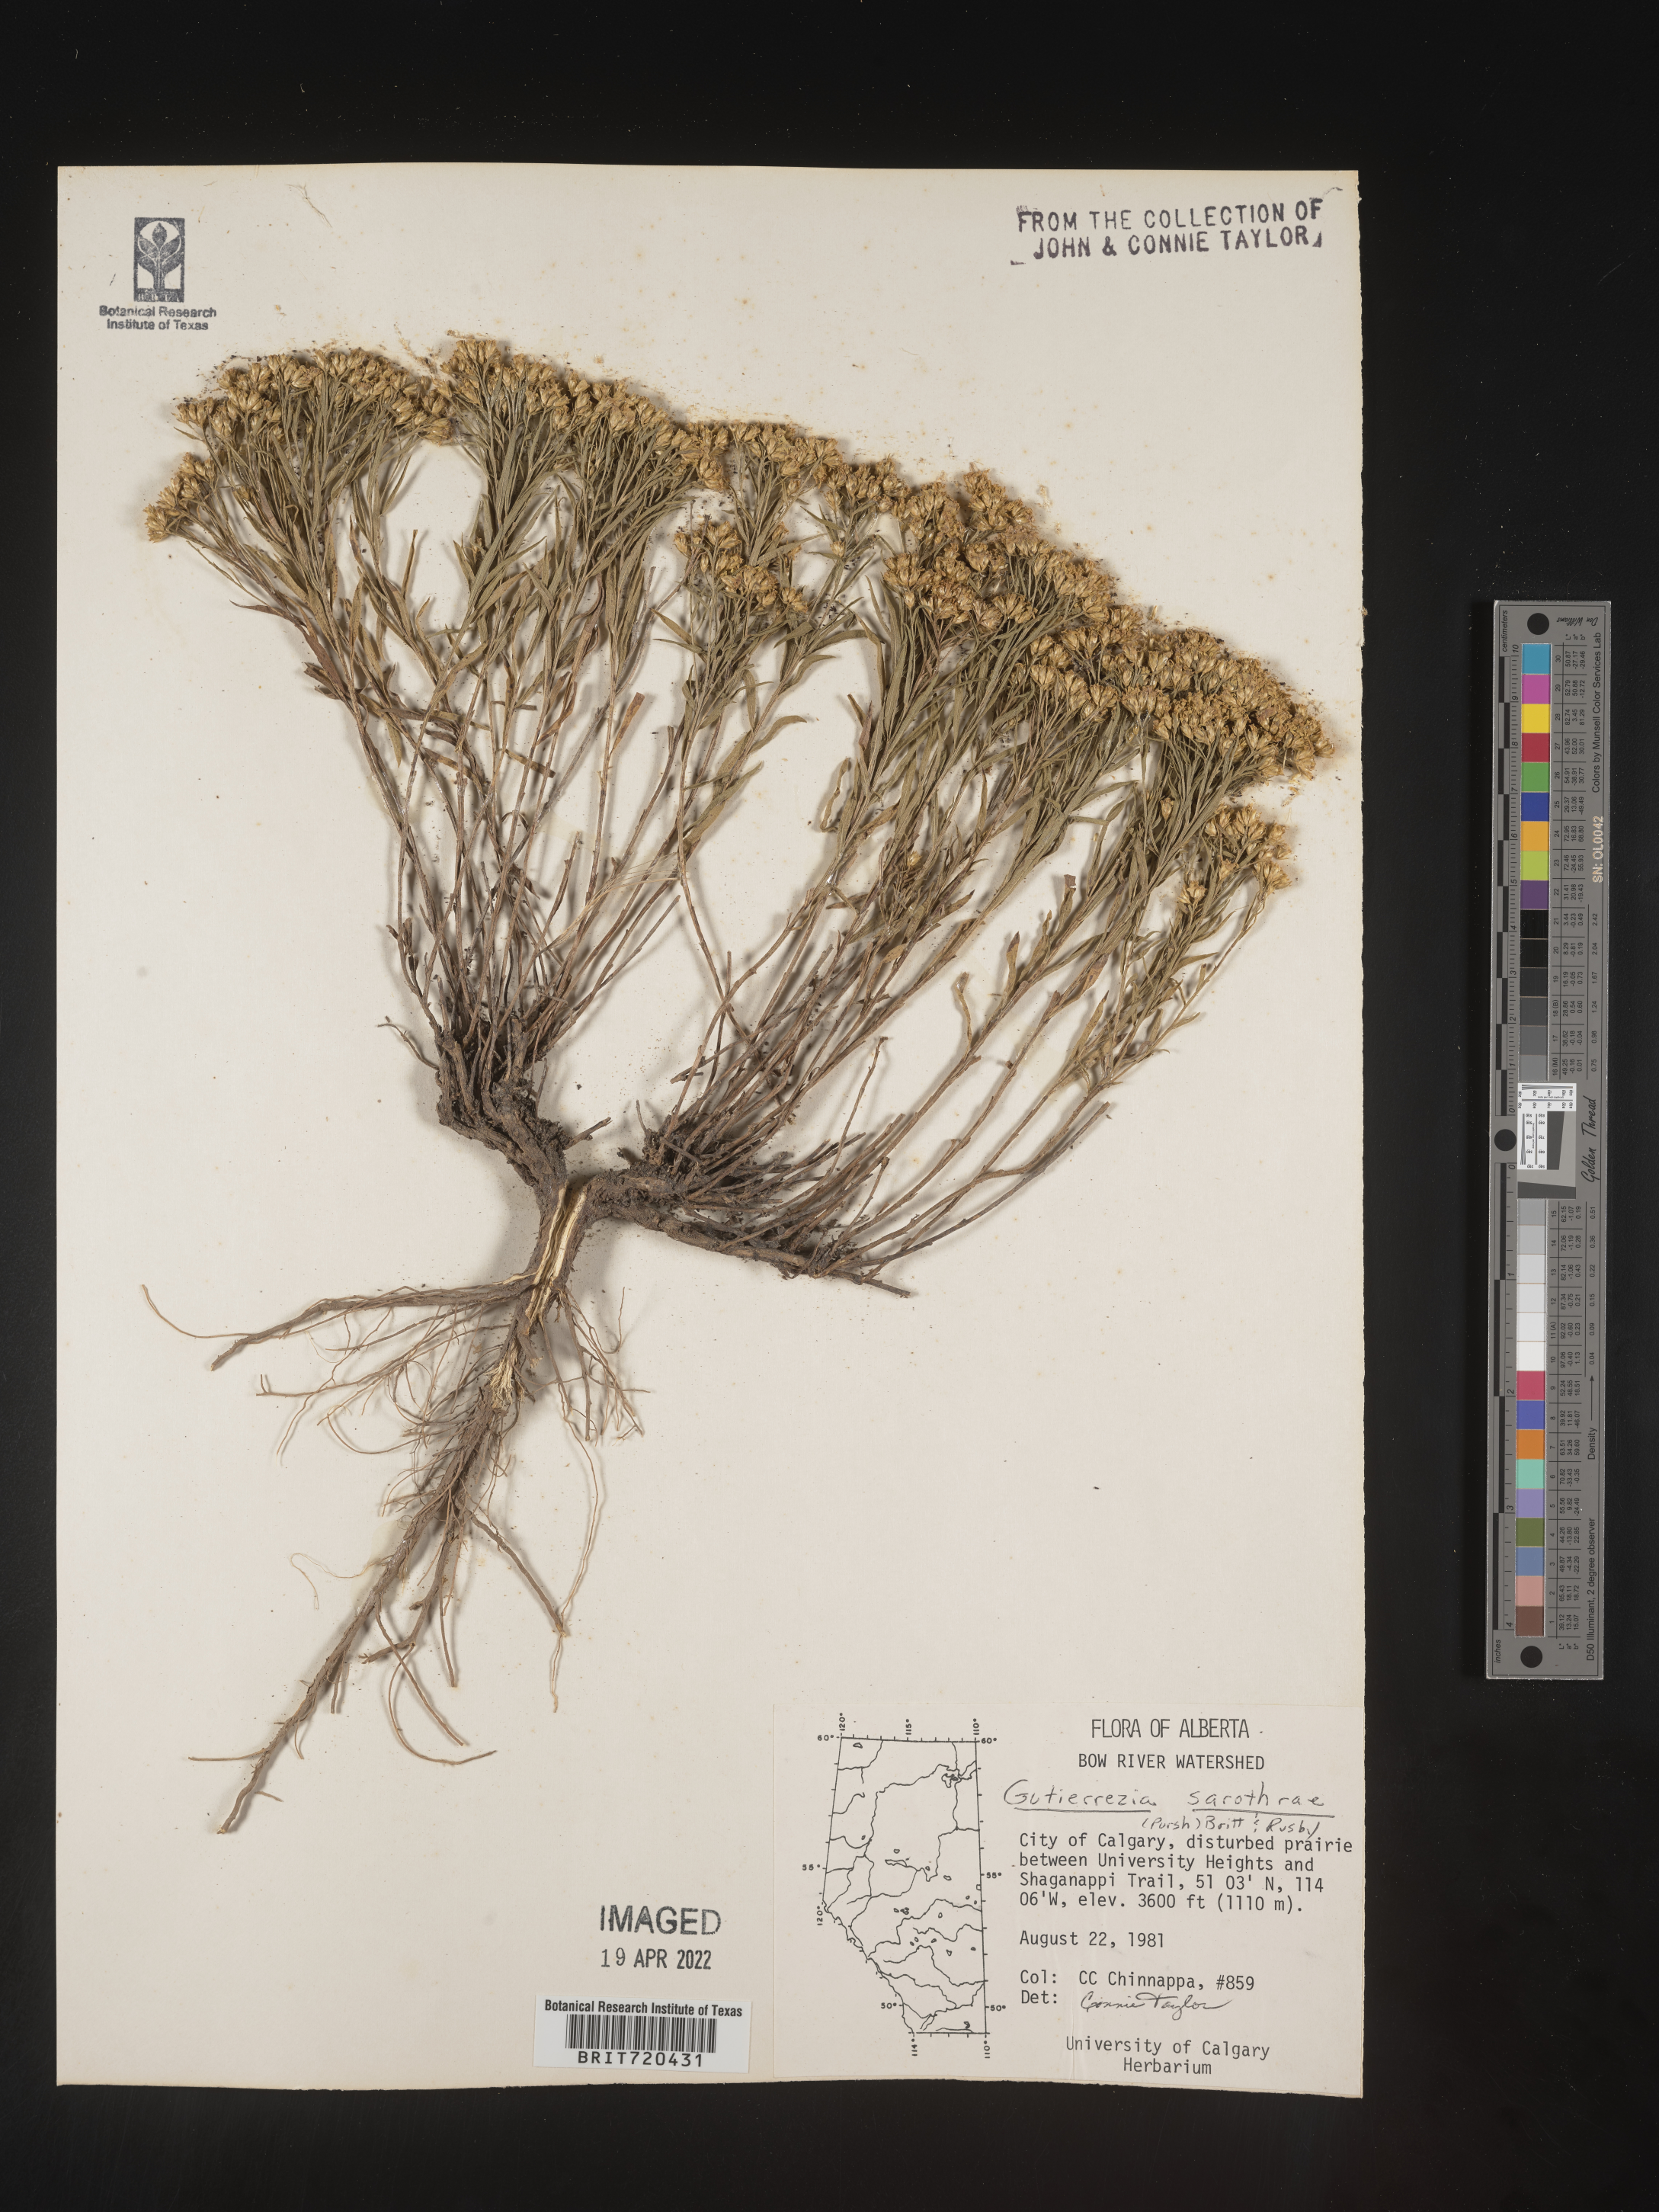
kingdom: Plantae
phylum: Tracheophyta
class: Magnoliopsida
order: Asterales
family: Asteraceae
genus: Gutierrezia
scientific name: Gutierrezia sarothrae
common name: Broom snakeweed
